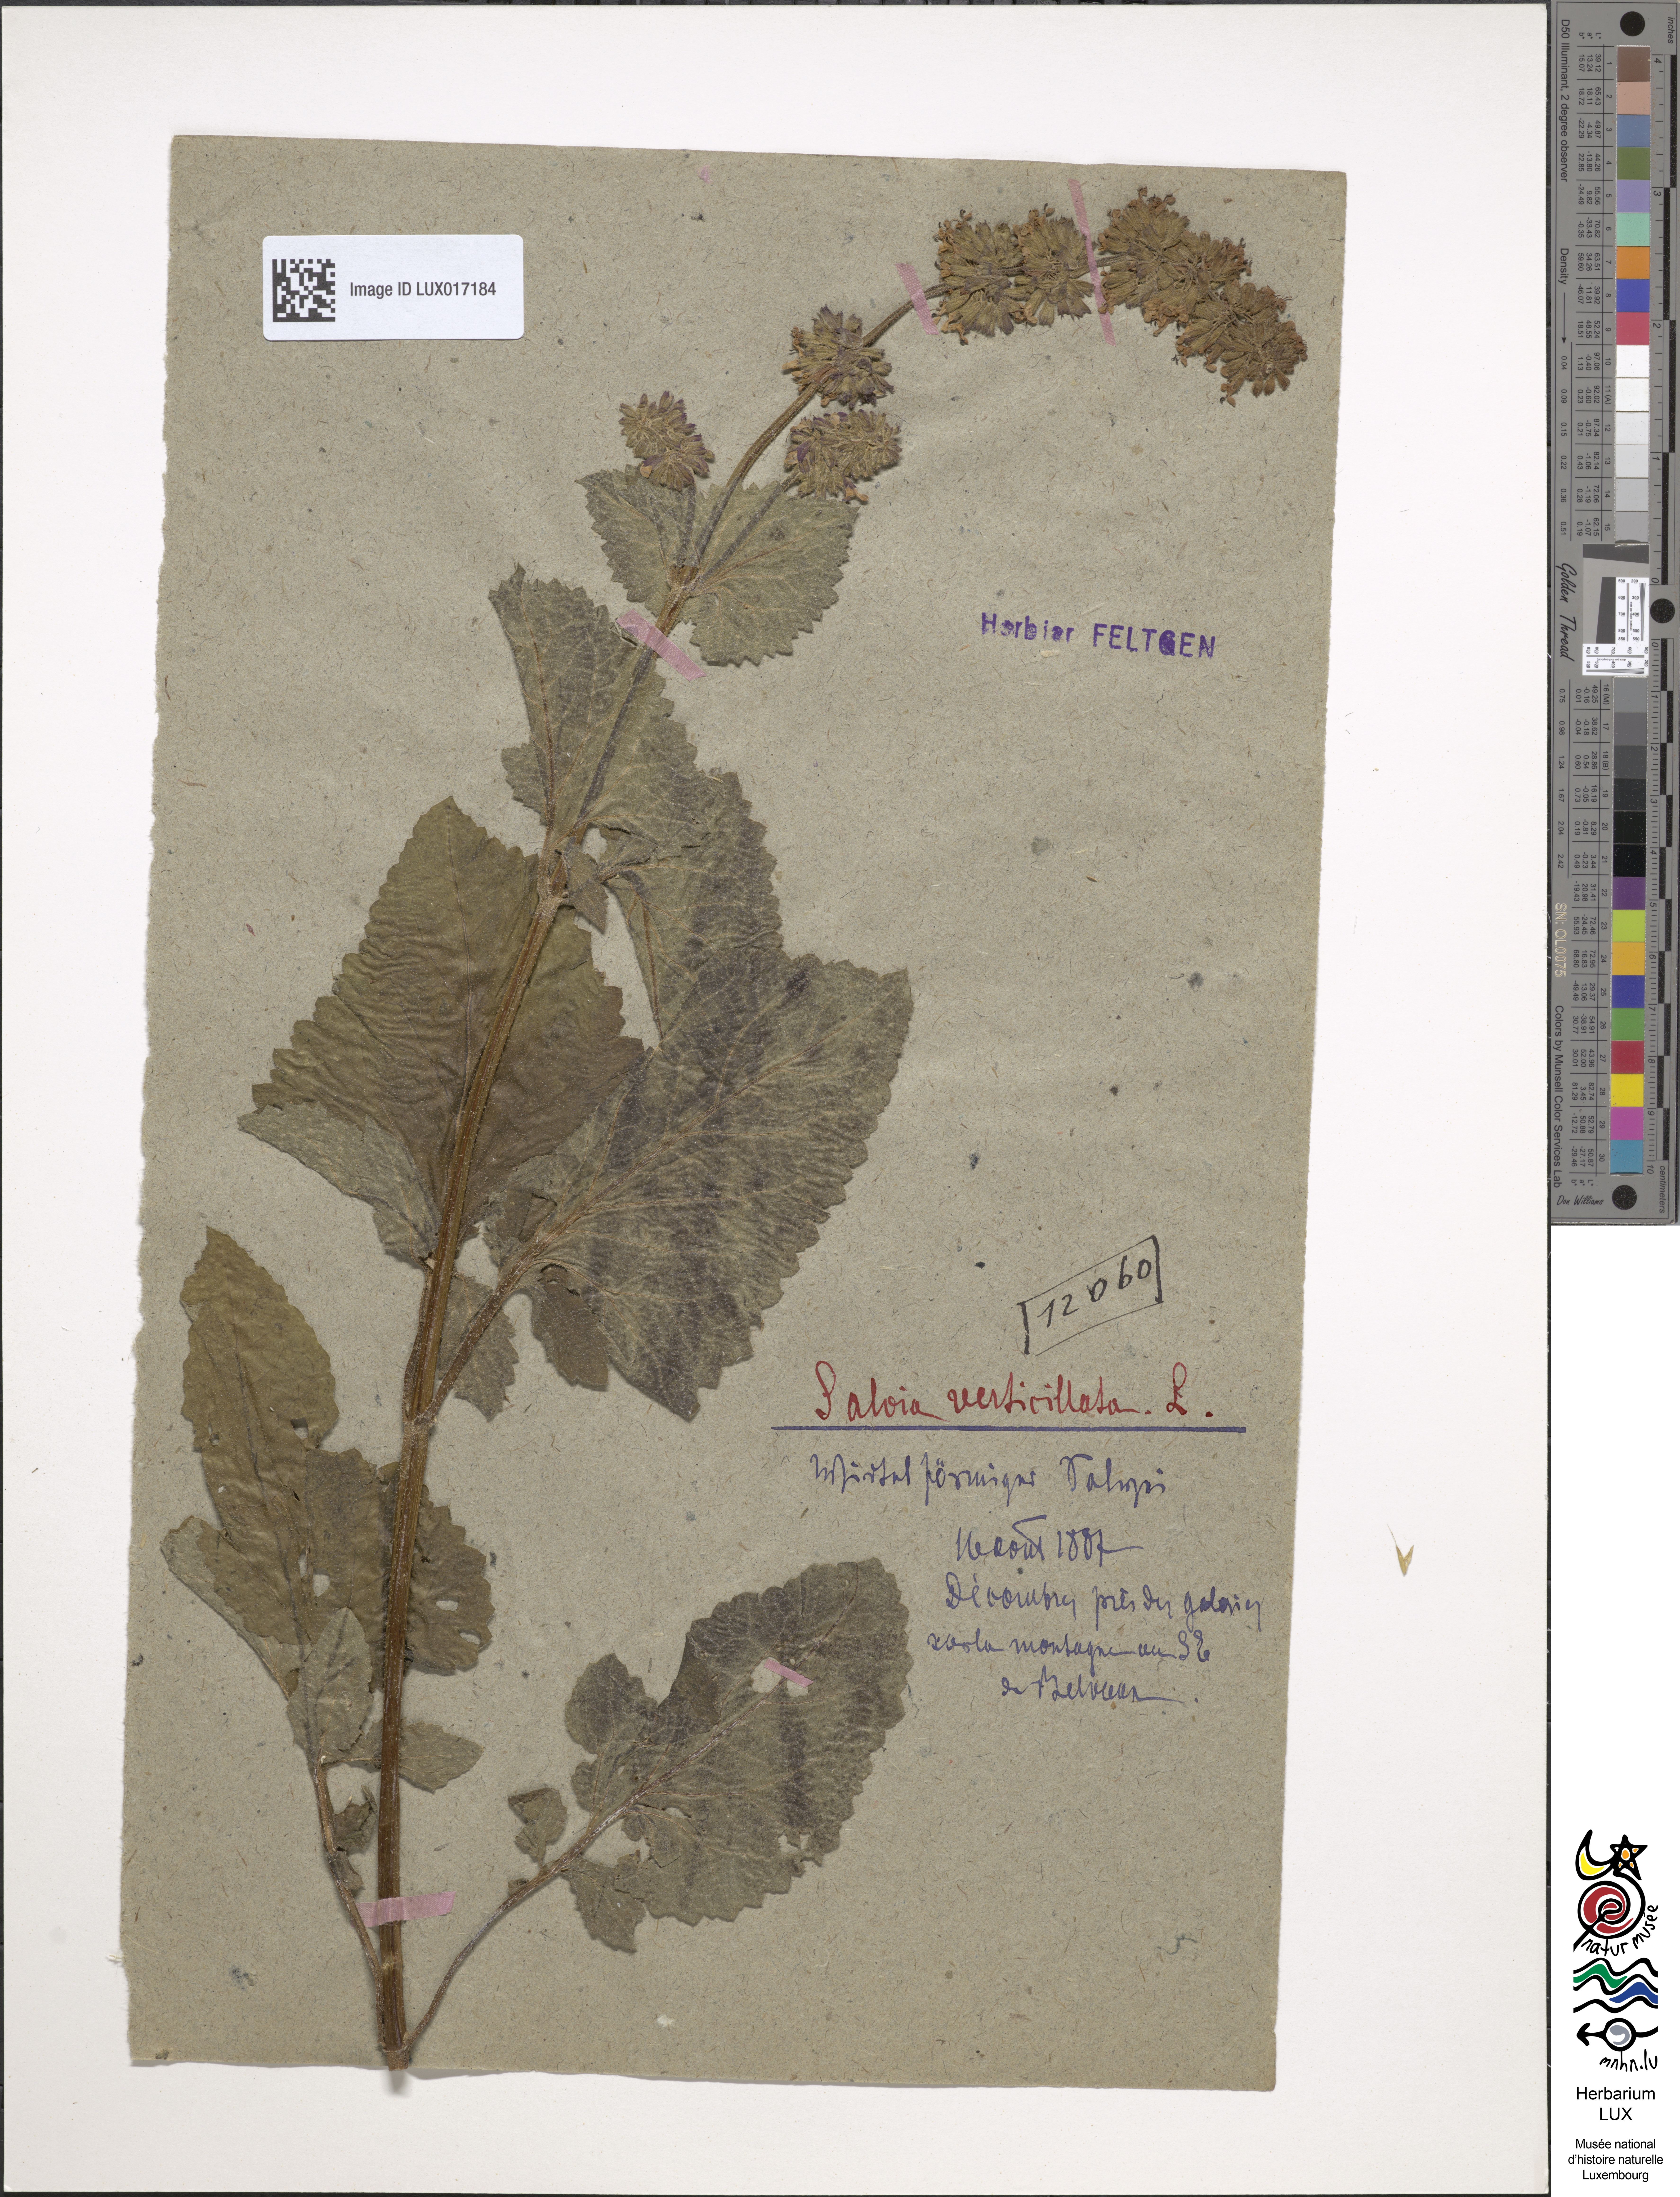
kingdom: Plantae
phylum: Tracheophyta
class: Magnoliopsida
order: Lamiales
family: Lamiaceae
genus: Salvia
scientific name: Salvia verticillata
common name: Whorled clary
